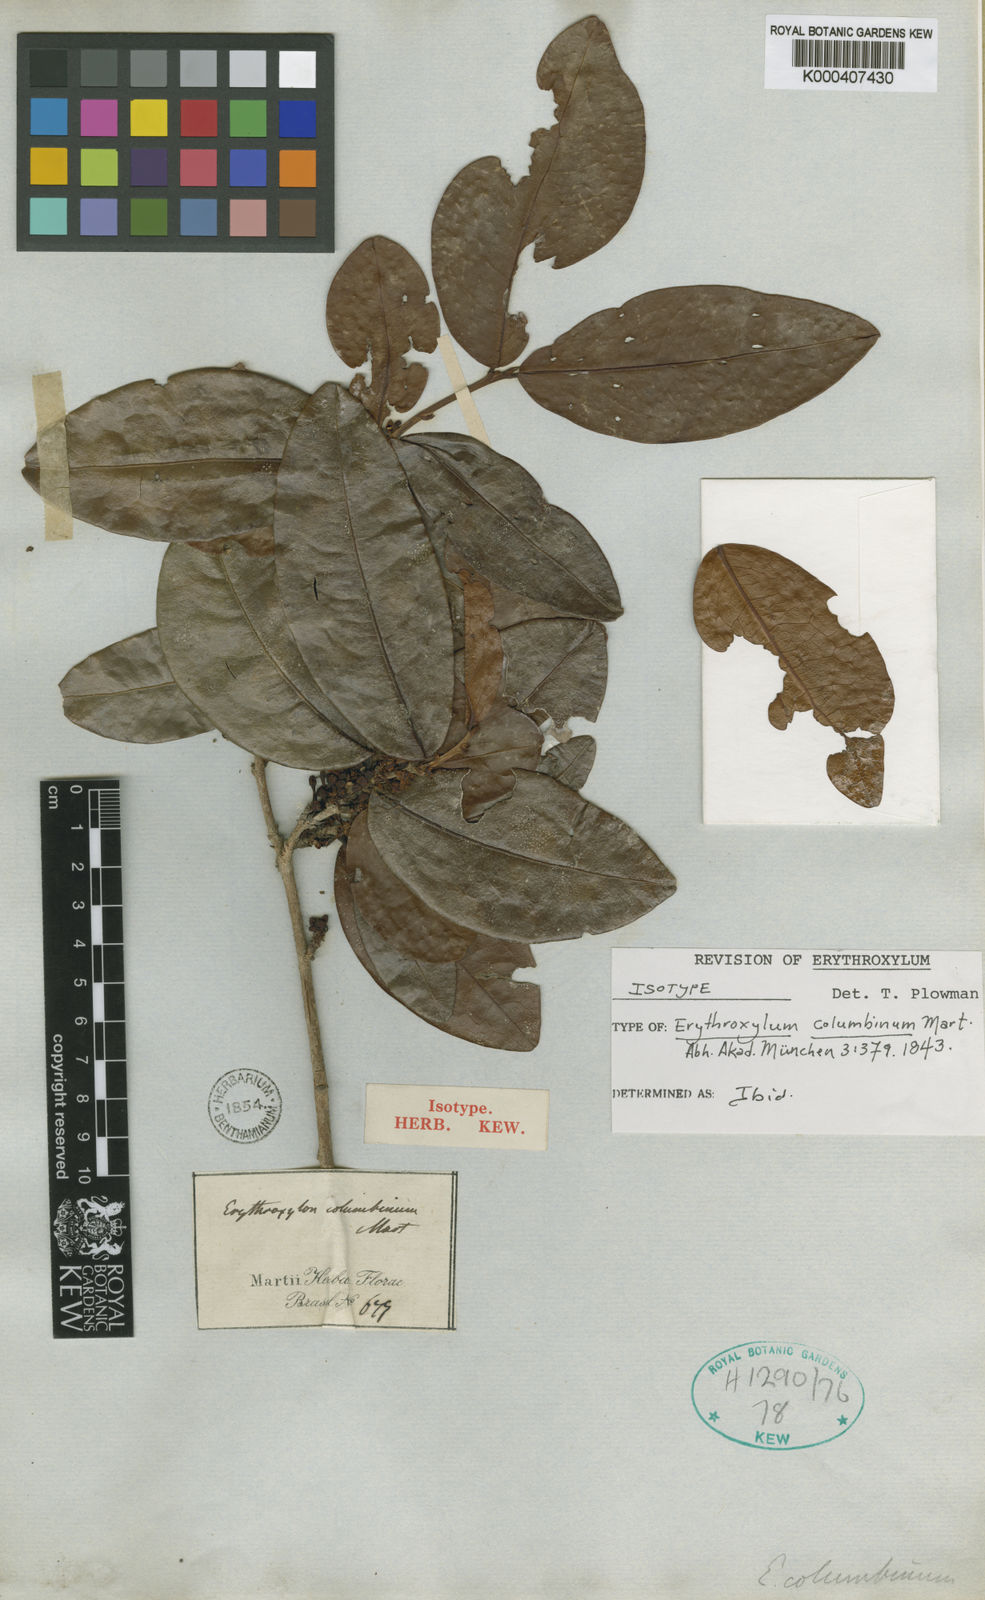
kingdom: Plantae
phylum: Tracheophyta
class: Magnoliopsida
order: Malpighiales
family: Erythroxylaceae
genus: Erythroxylum
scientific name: Erythroxylum columbinum
